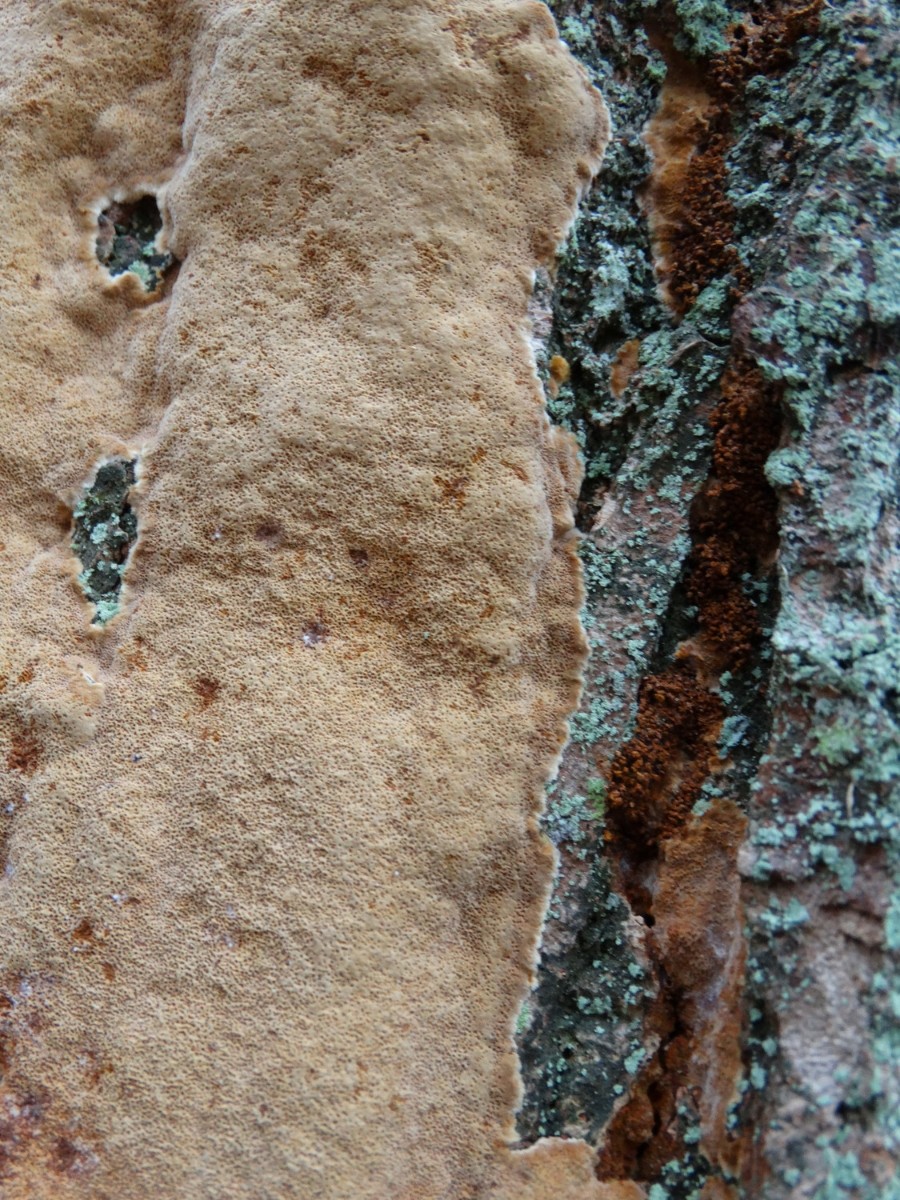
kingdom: Fungi
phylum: Basidiomycota
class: Agaricomycetes
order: Hymenochaetales
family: Hymenochaetaceae
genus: Fuscoporia
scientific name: Fuscoporia ferrea
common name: skorpe-ildporesvamp
